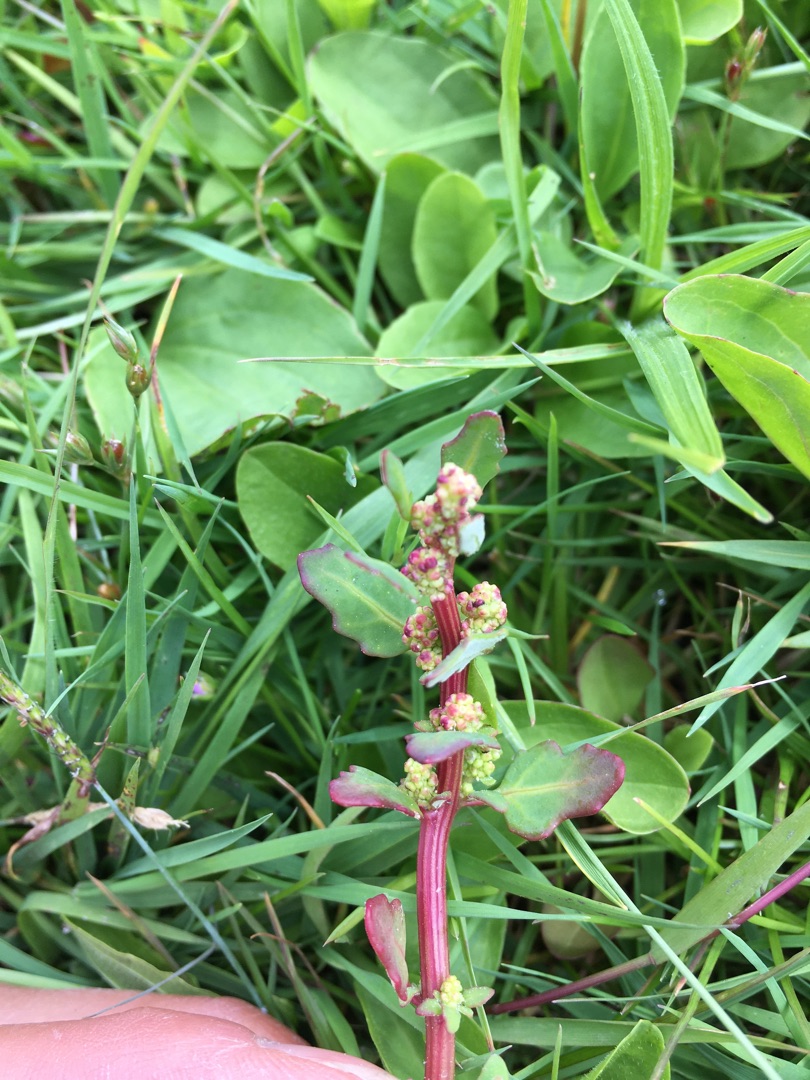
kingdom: Plantae
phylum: Tracheophyta
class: Magnoliopsida
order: Caryophyllales
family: Amaranthaceae
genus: Oxybasis
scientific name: Oxybasis glauca
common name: Blågrøn gåsefod
